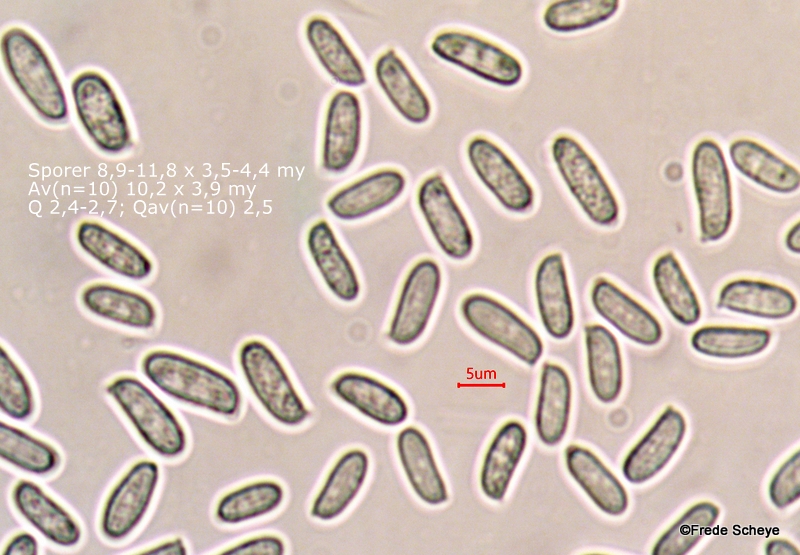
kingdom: Fungi
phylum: Basidiomycota
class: Agaricomycetes
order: Agaricales
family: Physalacriaceae
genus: Flammulina
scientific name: Flammulina elastica
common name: pile-fløjlsfod
